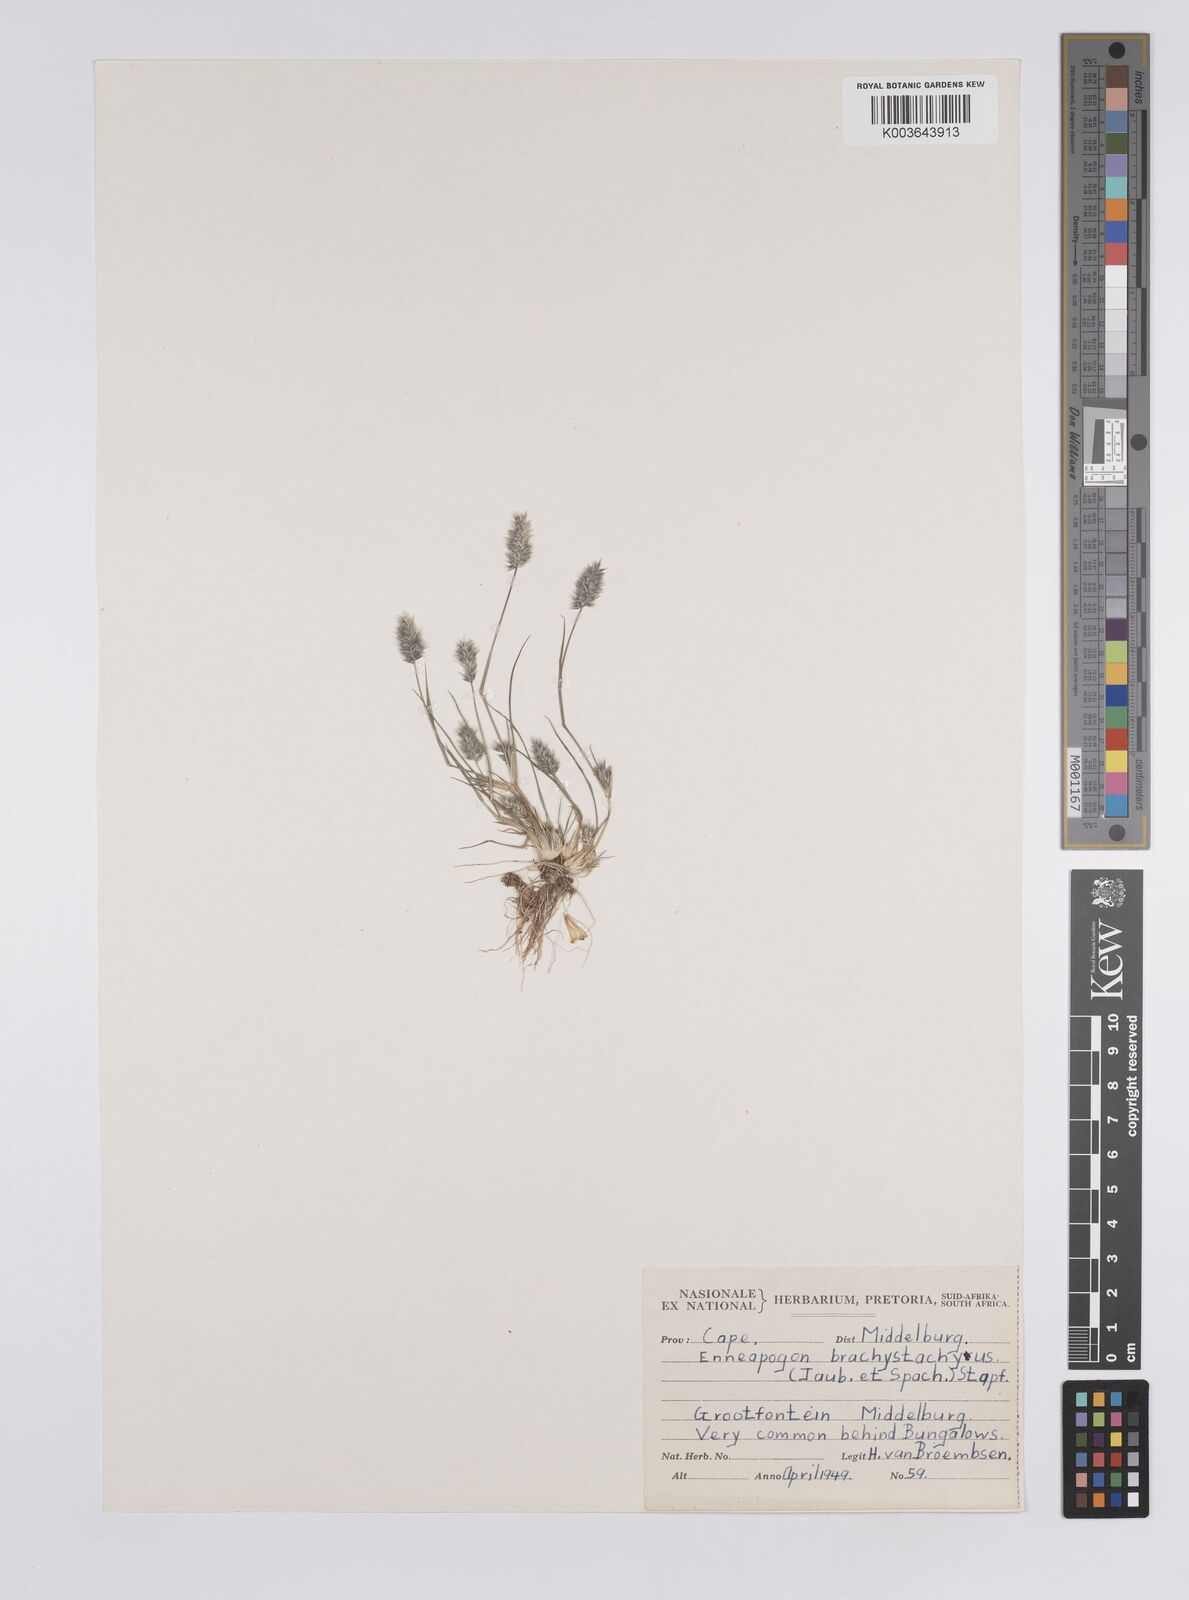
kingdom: Plantae
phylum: Tracheophyta
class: Liliopsida
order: Poales
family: Poaceae
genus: Enneapogon
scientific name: Enneapogon desvauxii
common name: Feather pappus grass
